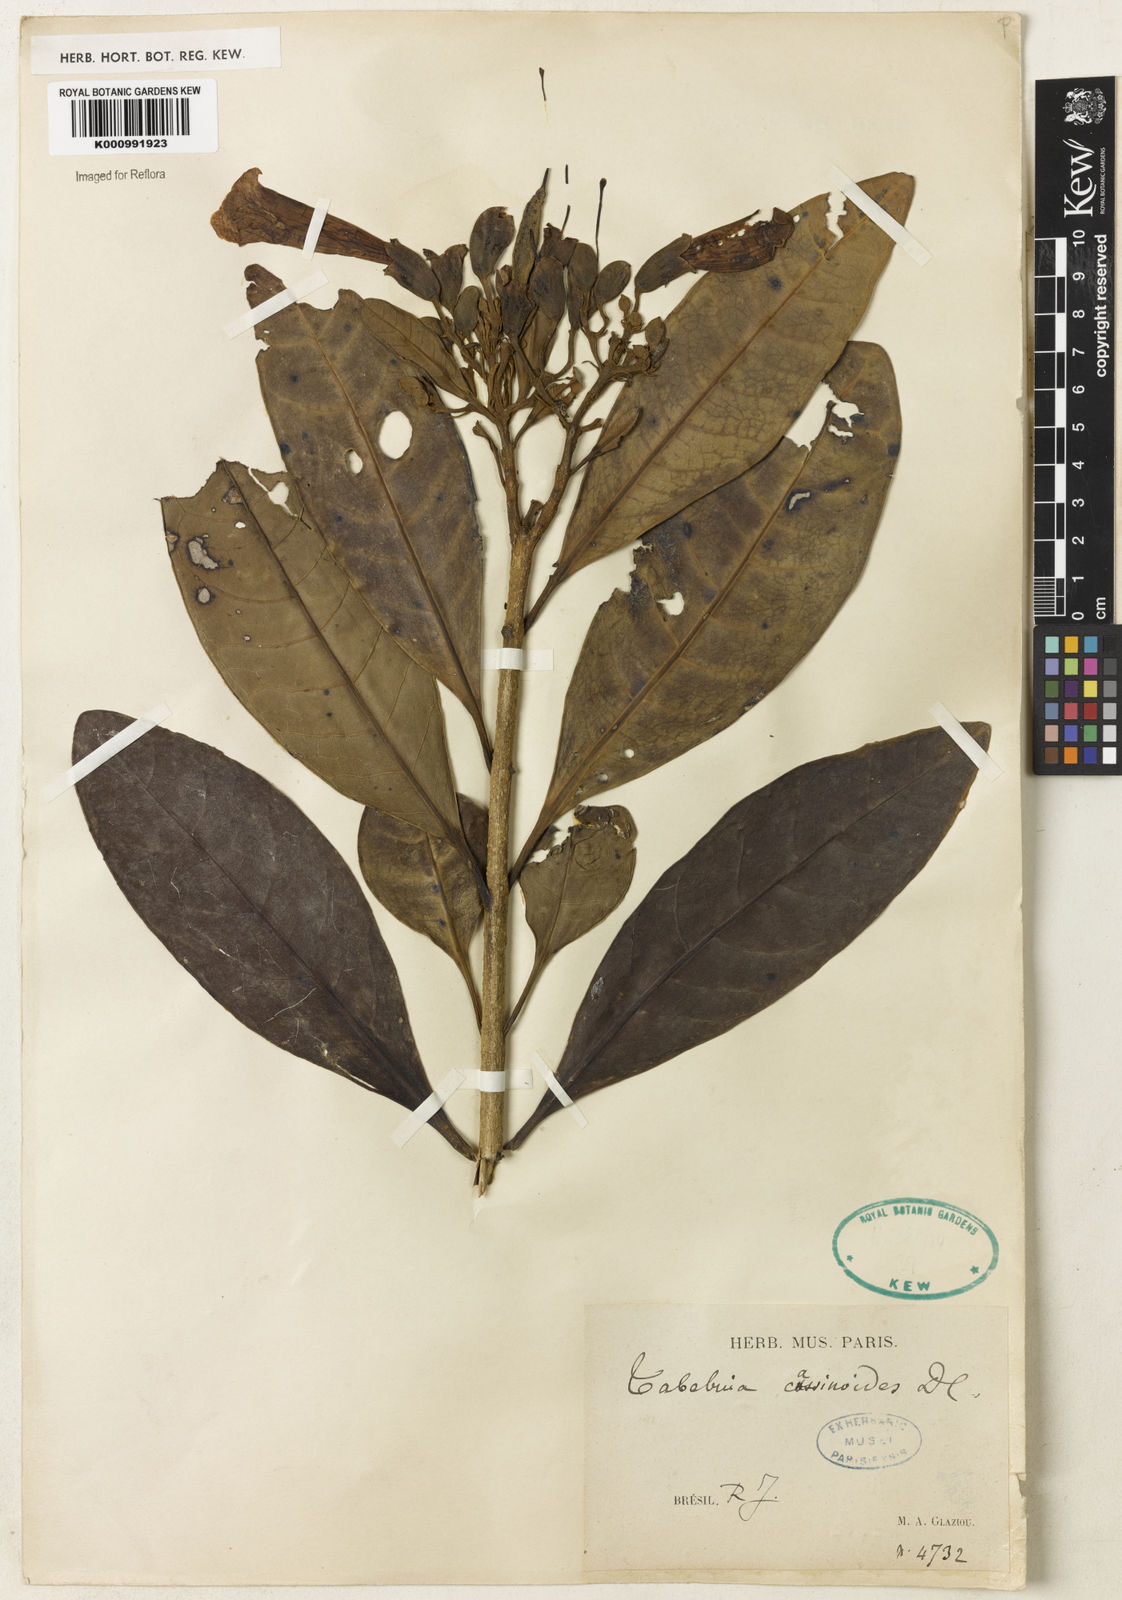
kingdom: Plantae
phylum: Tracheophyta
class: Magnoliopsida
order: Lamiales
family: Bignoniaceae
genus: Tabebuia
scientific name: Tabebuia cassinoides
